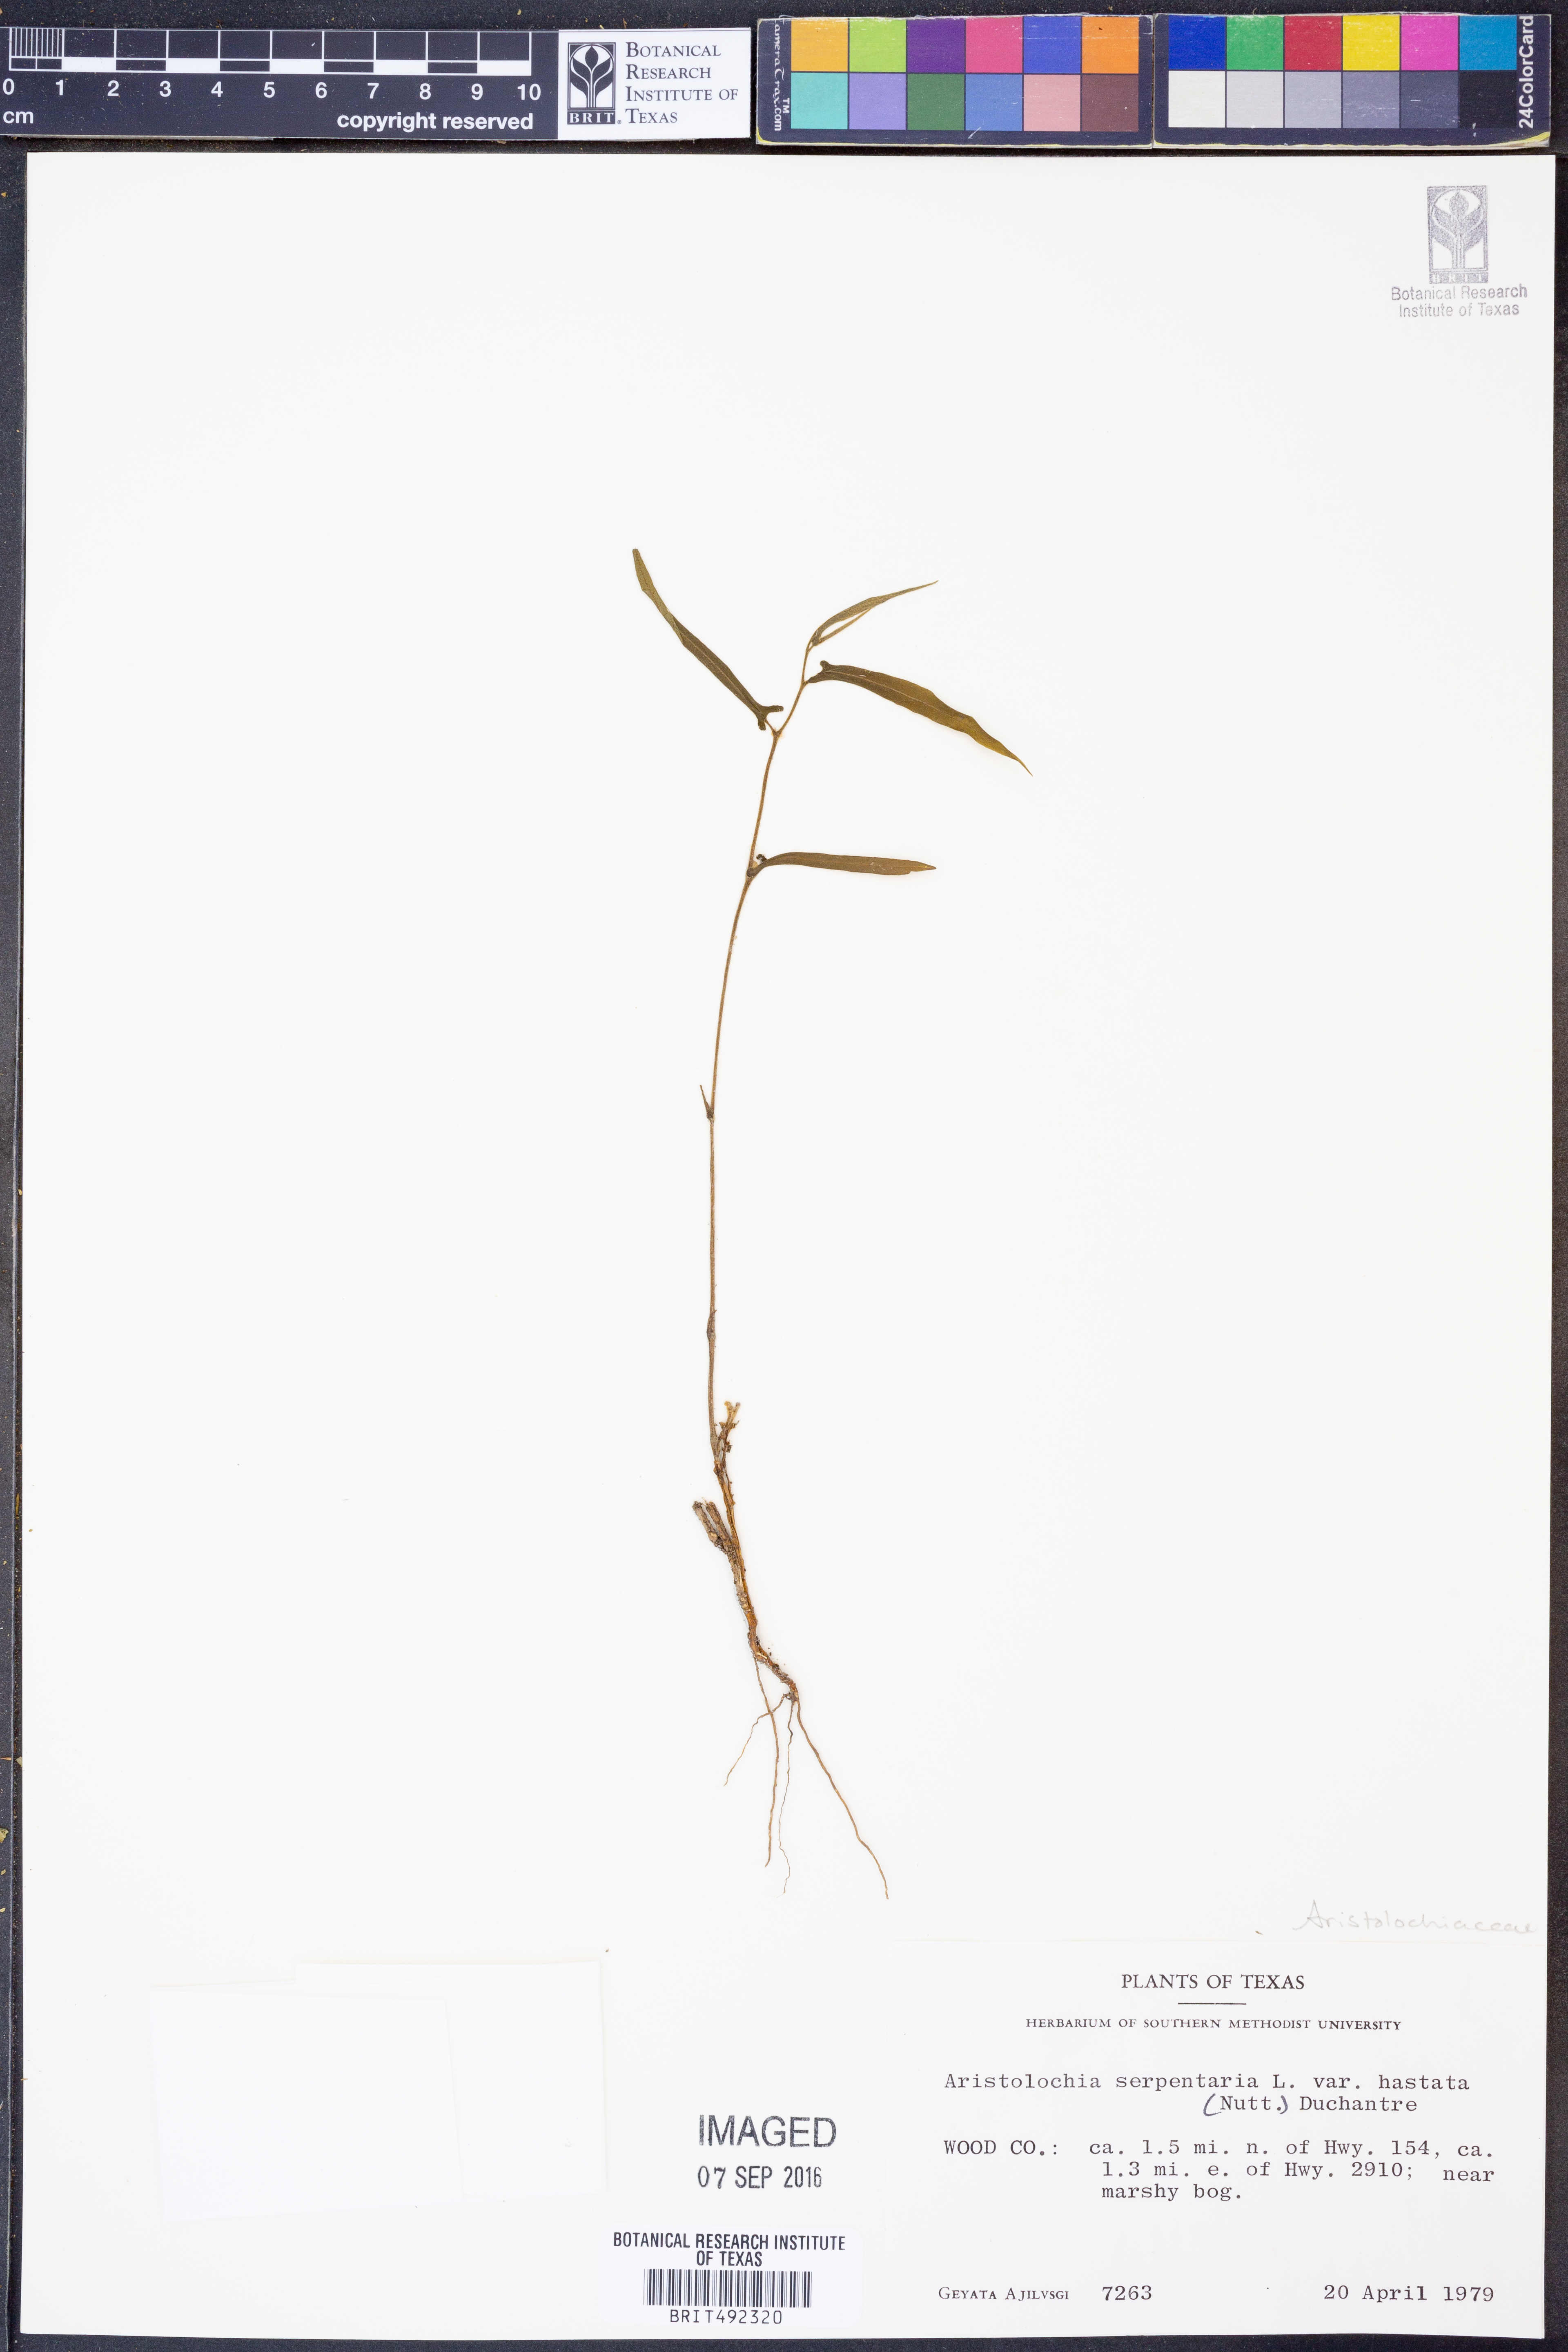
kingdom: Plantae
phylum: Tracheophyta
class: Magnoliopsida
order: Piperales
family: Aristolochiaceae
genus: Endodeca
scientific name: Endodeca serpentaria
